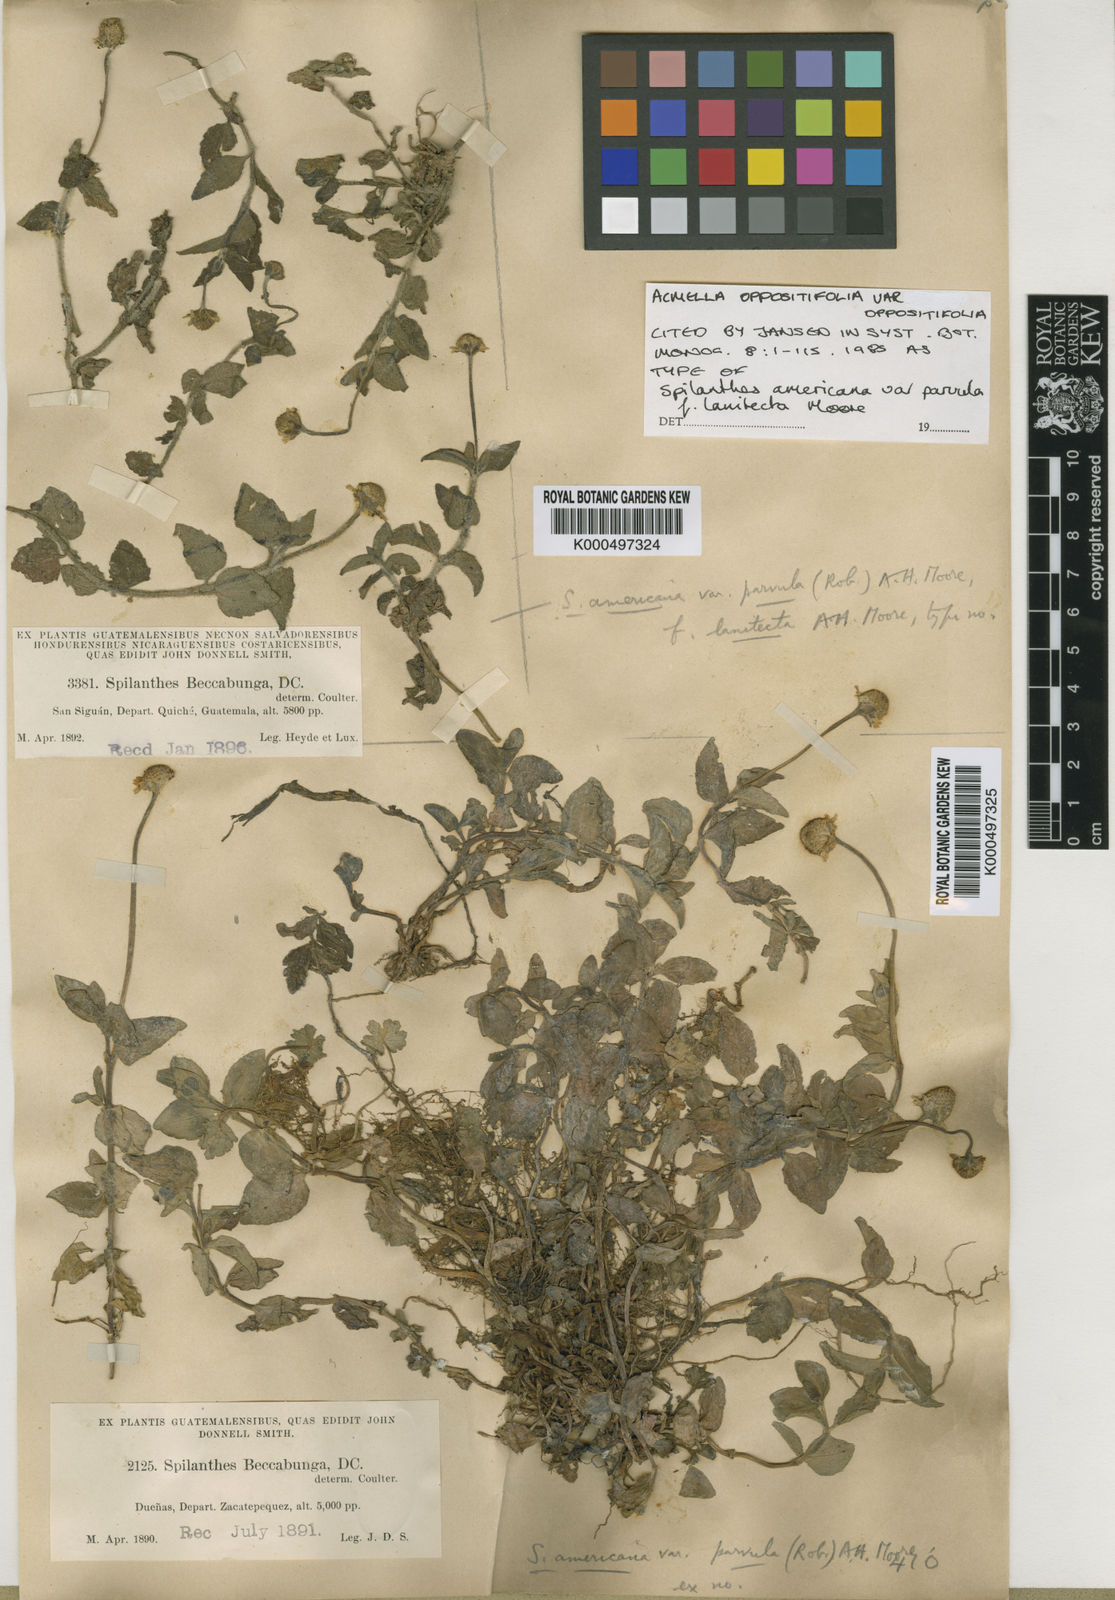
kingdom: Plantae
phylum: Tracheophyta
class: Magnoliopsida
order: Asterales
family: Asteraceae
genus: Heliopsis
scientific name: Heliopsis buphthalmoides
